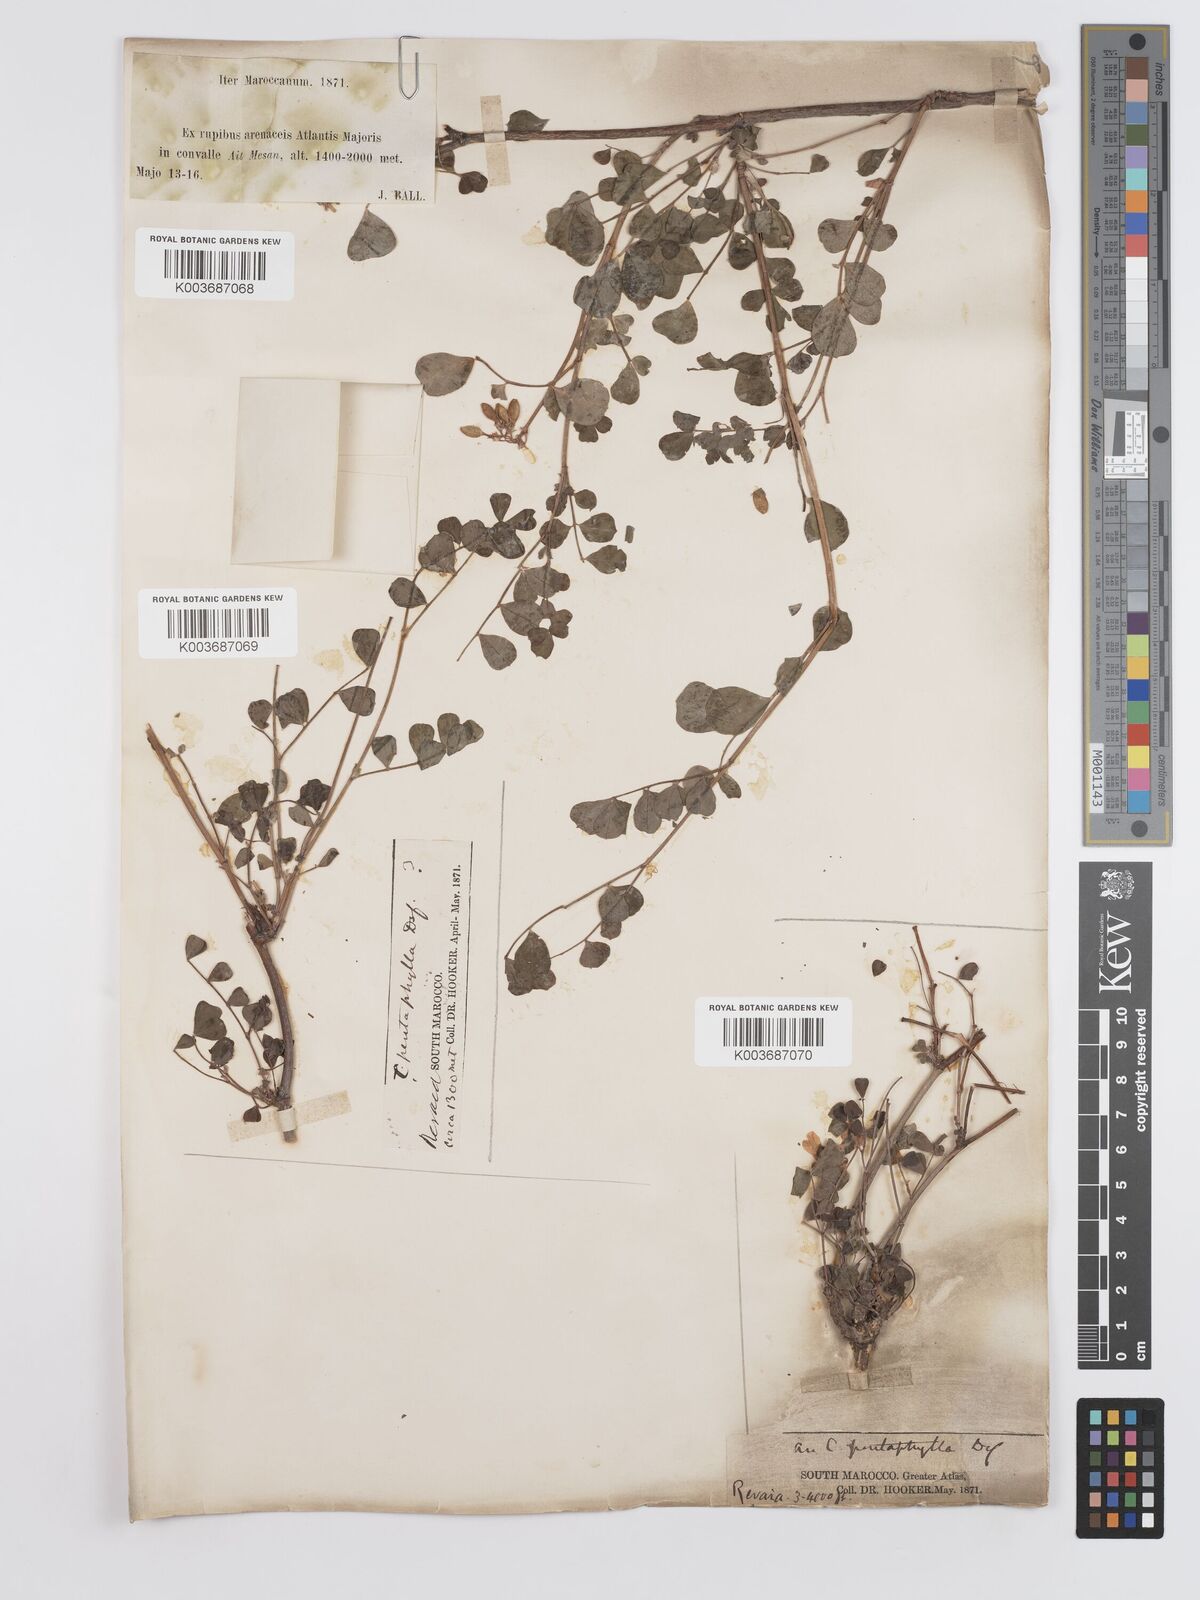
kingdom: Plantae
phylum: Tracheophyta
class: Magnoliopsida
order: Fabales
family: Fabaceae
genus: Coronilla
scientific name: Coronilla valentina
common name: Shrubby scorpion-vetch
